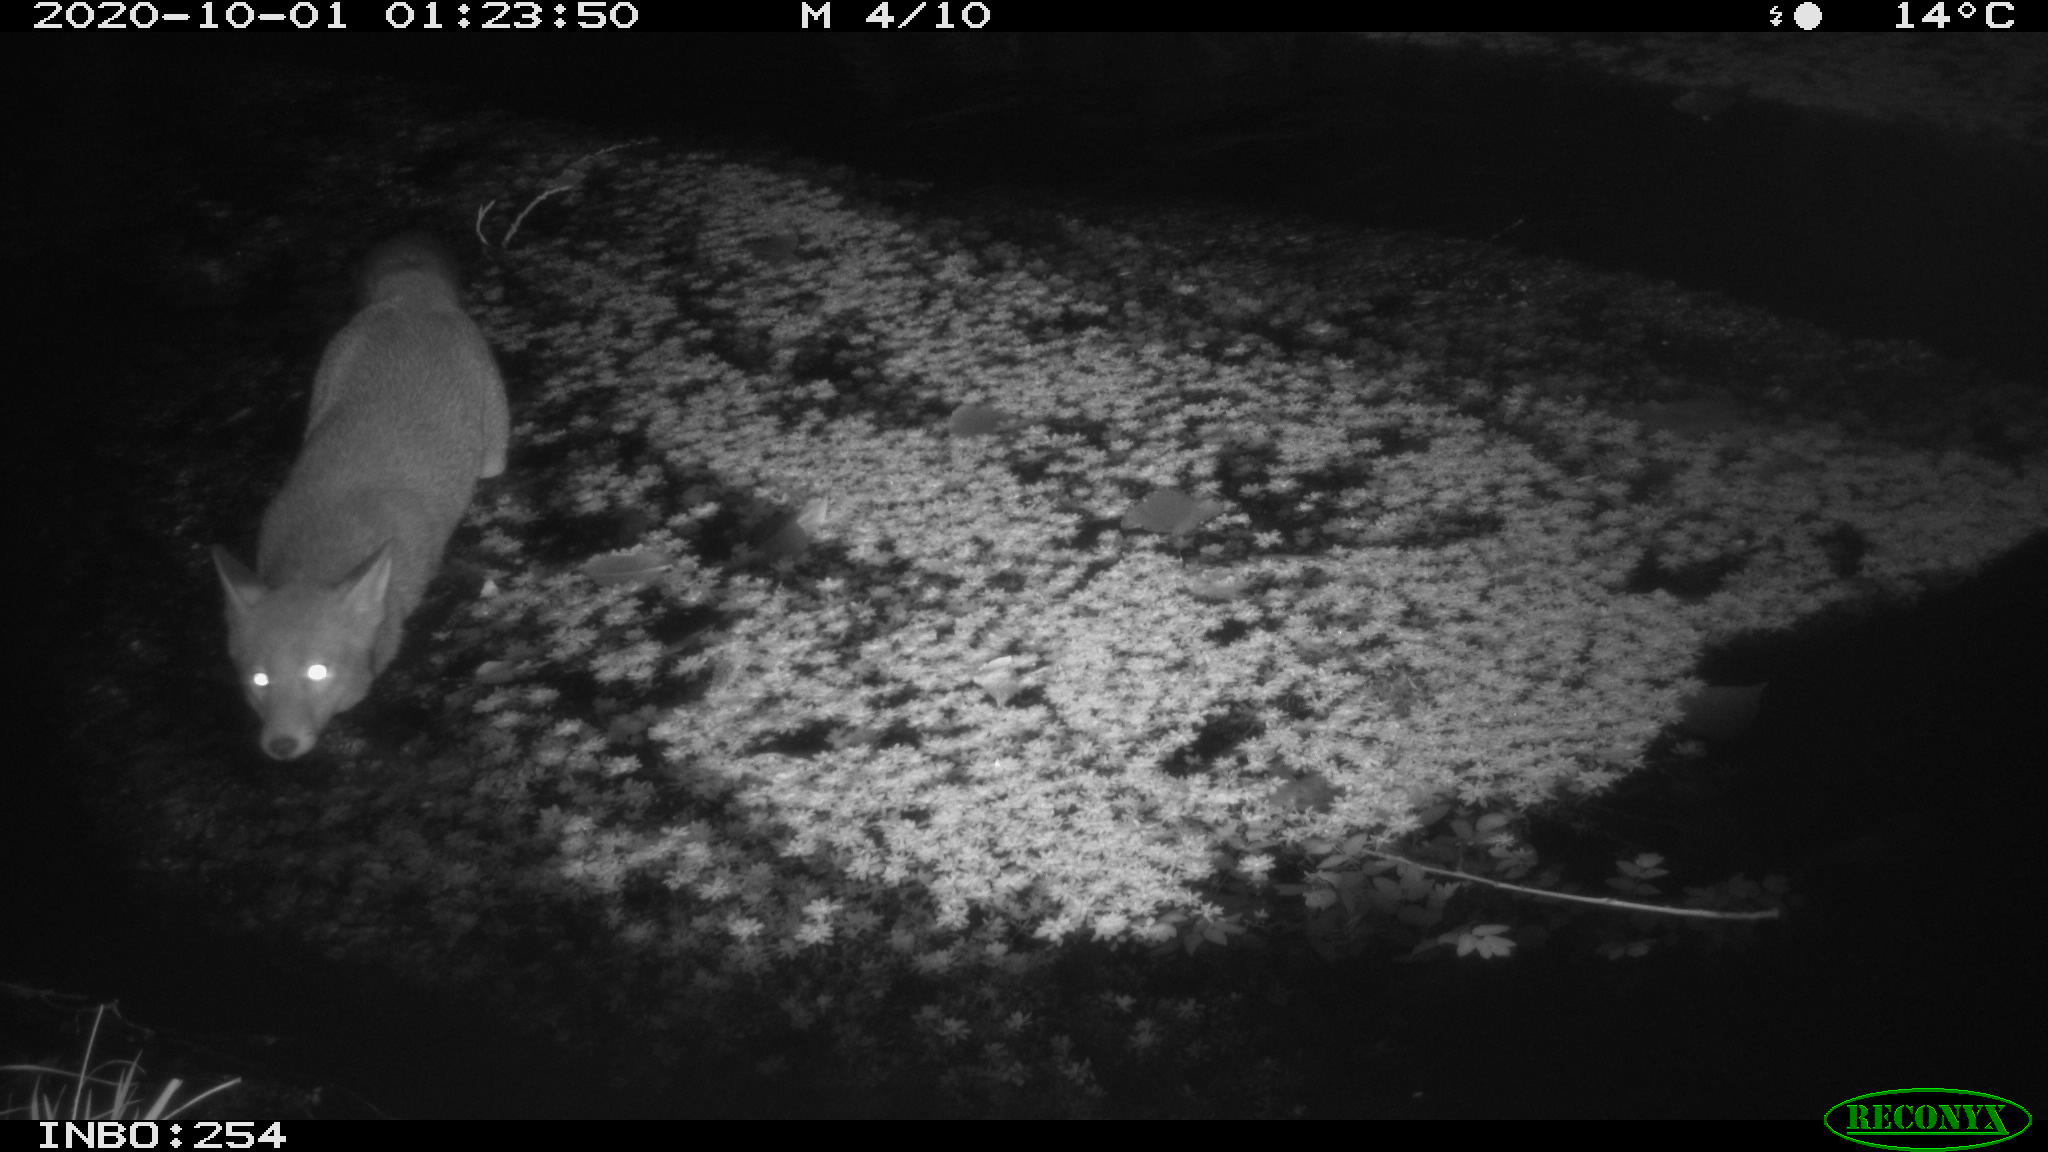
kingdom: Animalia
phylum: Chordata
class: Mammalia
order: Carnivora
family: Canidae
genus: Vulpes
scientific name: Vulpes vulpes
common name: Red fox
